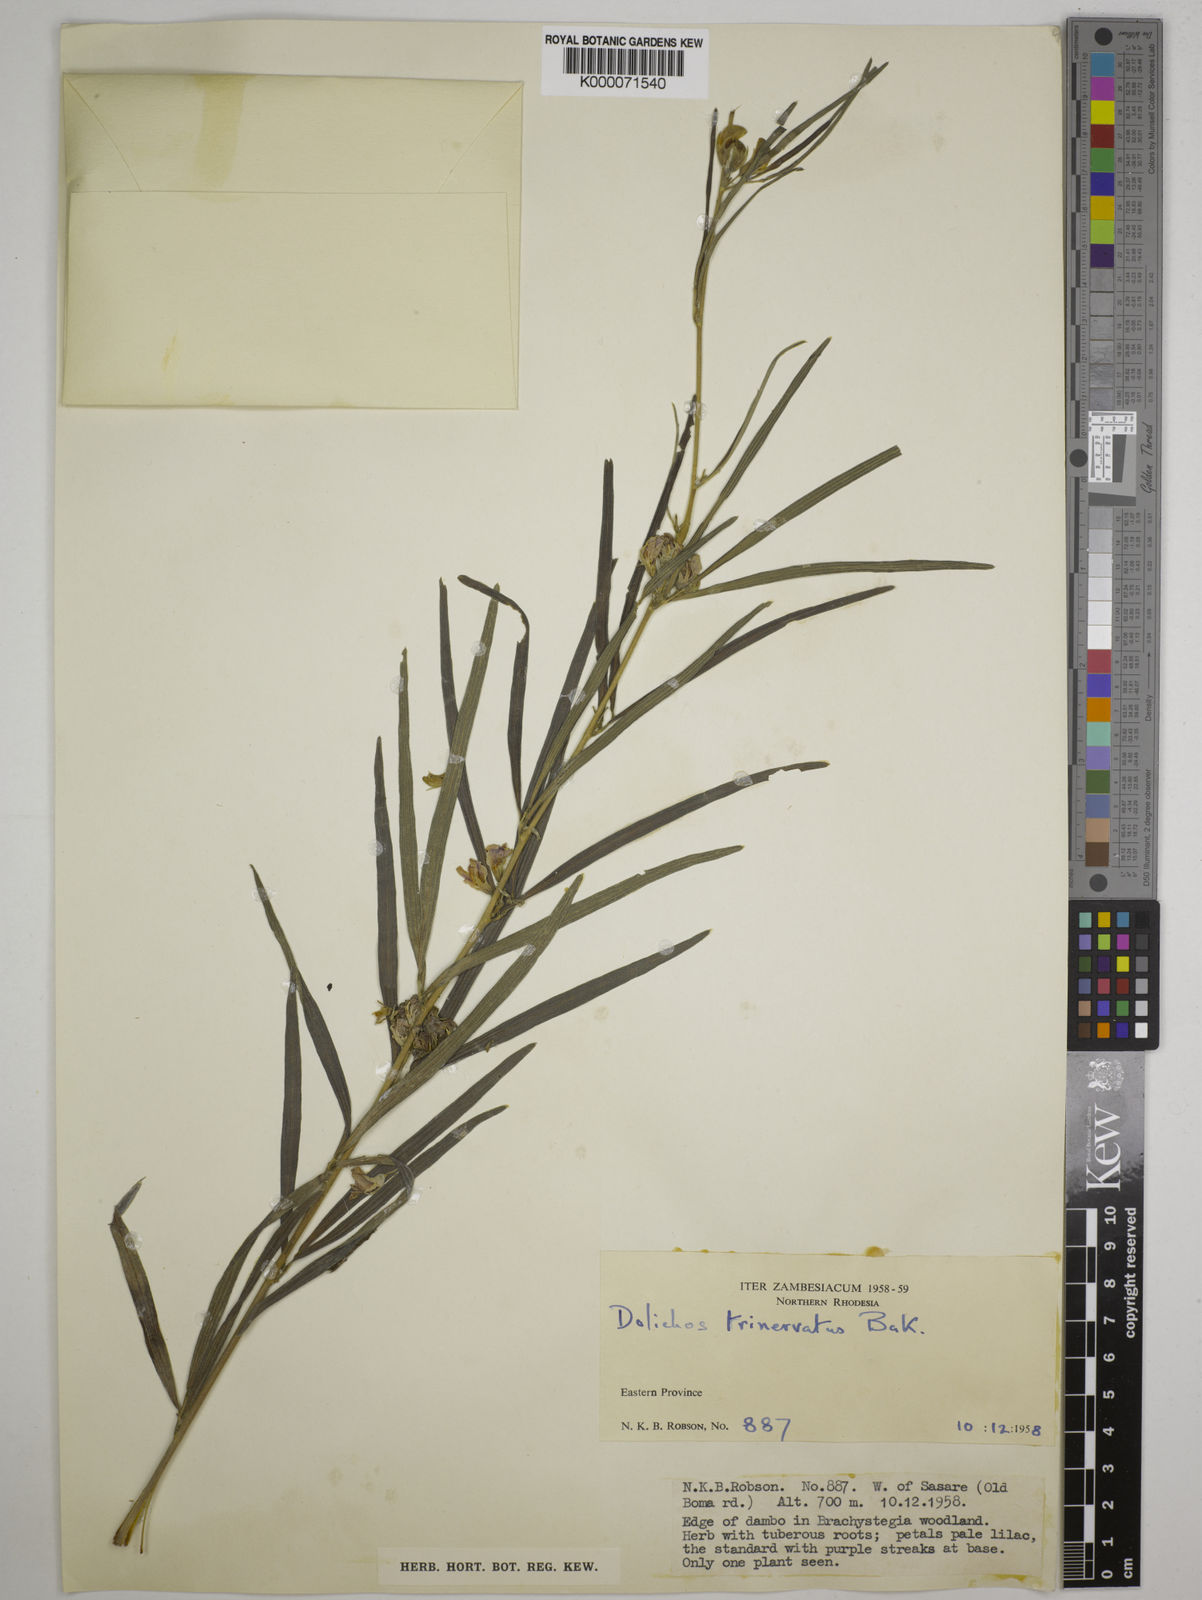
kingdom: Plantae
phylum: Tracheophyta
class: Magnoliopsida
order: Fabales
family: Fabaceae
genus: Dolichos
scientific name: Dolichos trinervatus
